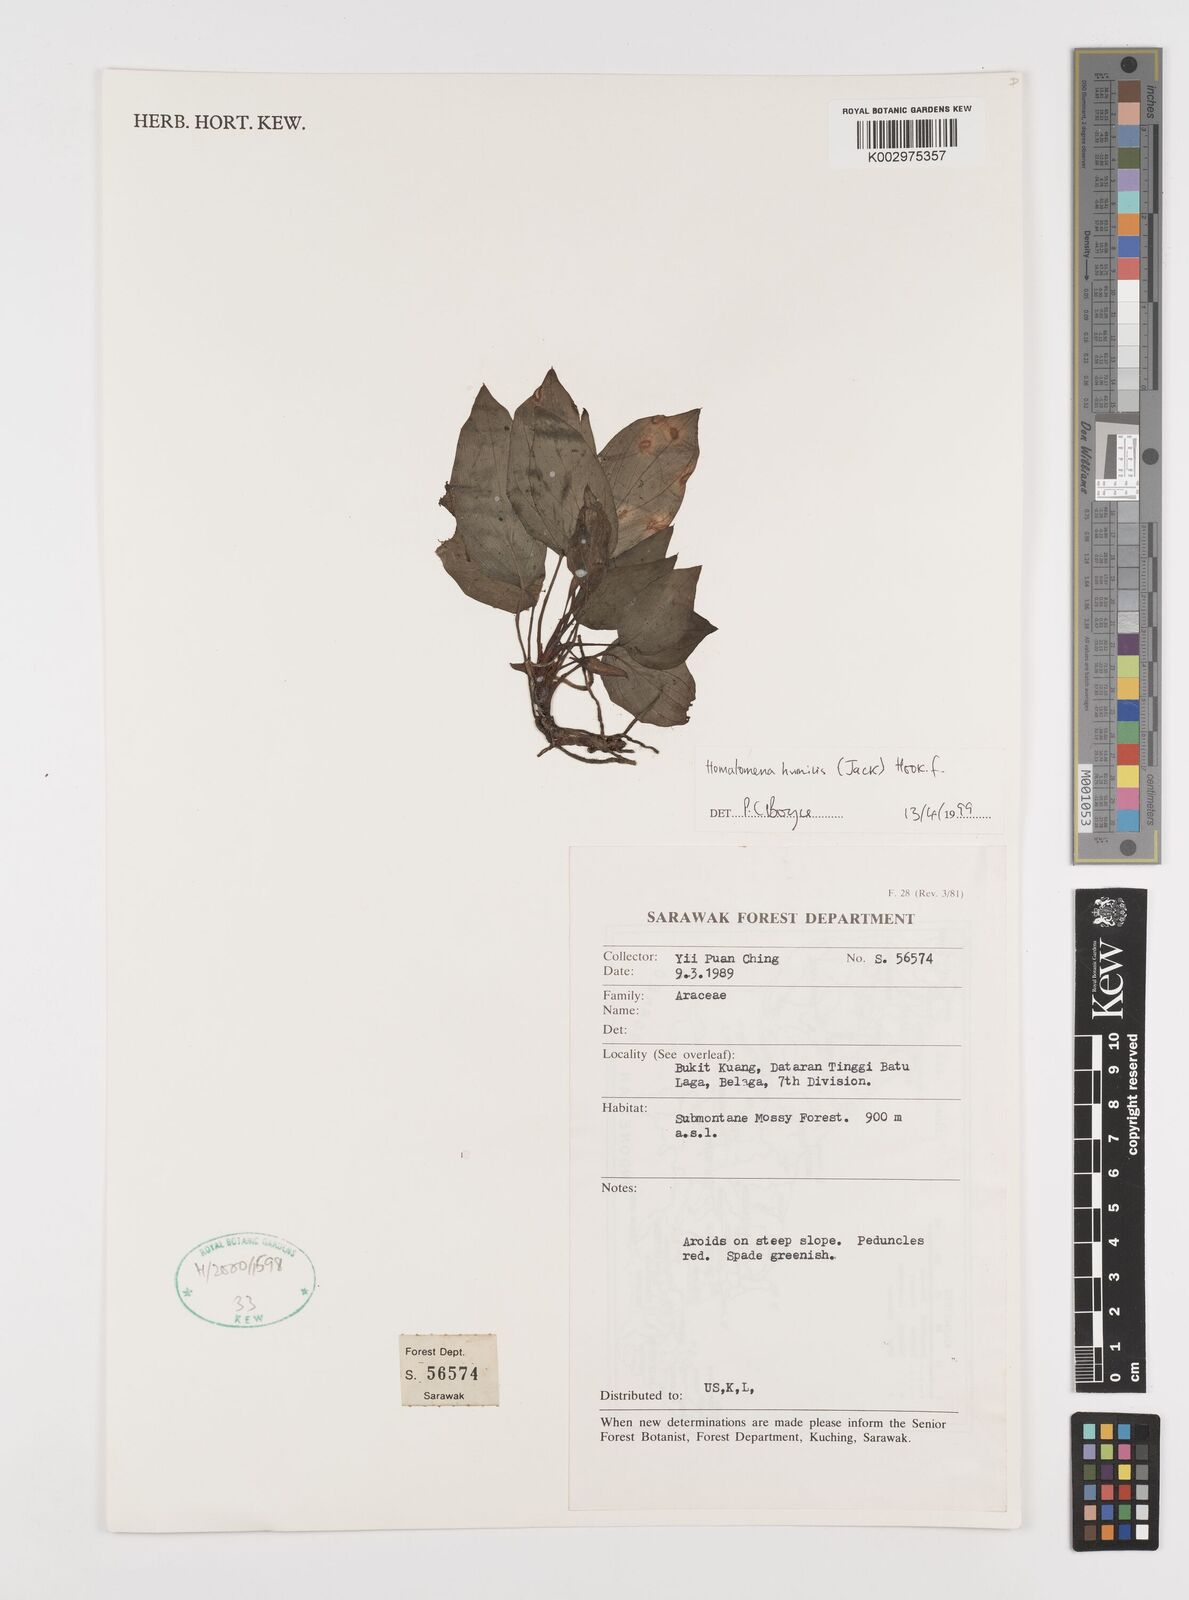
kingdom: Plantae
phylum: Tracheophyta
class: Liliopsida
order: Alismatales
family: Araceae
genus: Homalomena
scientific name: Homalomena humilis
